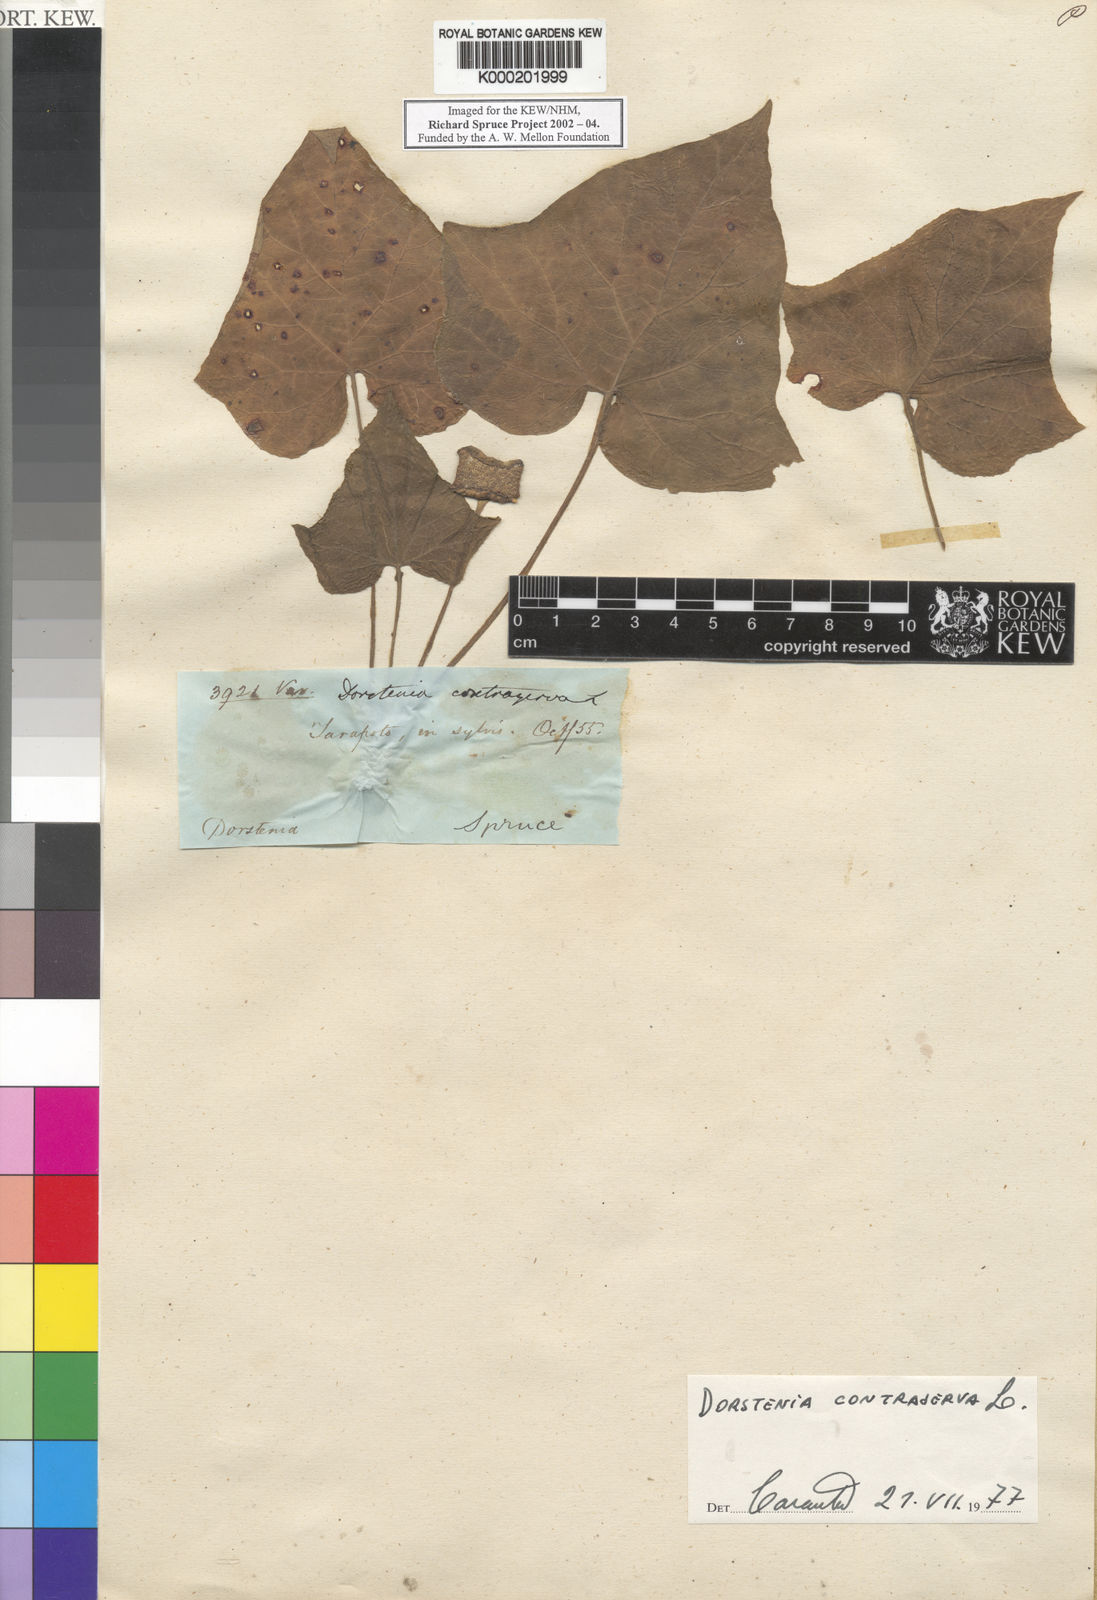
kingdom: Plantae
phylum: Tracheophyta
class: Magnoliopsida
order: Rosales
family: Moraceae
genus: Dorstenia
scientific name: Dorstenia contrajerva
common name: Tusilla
